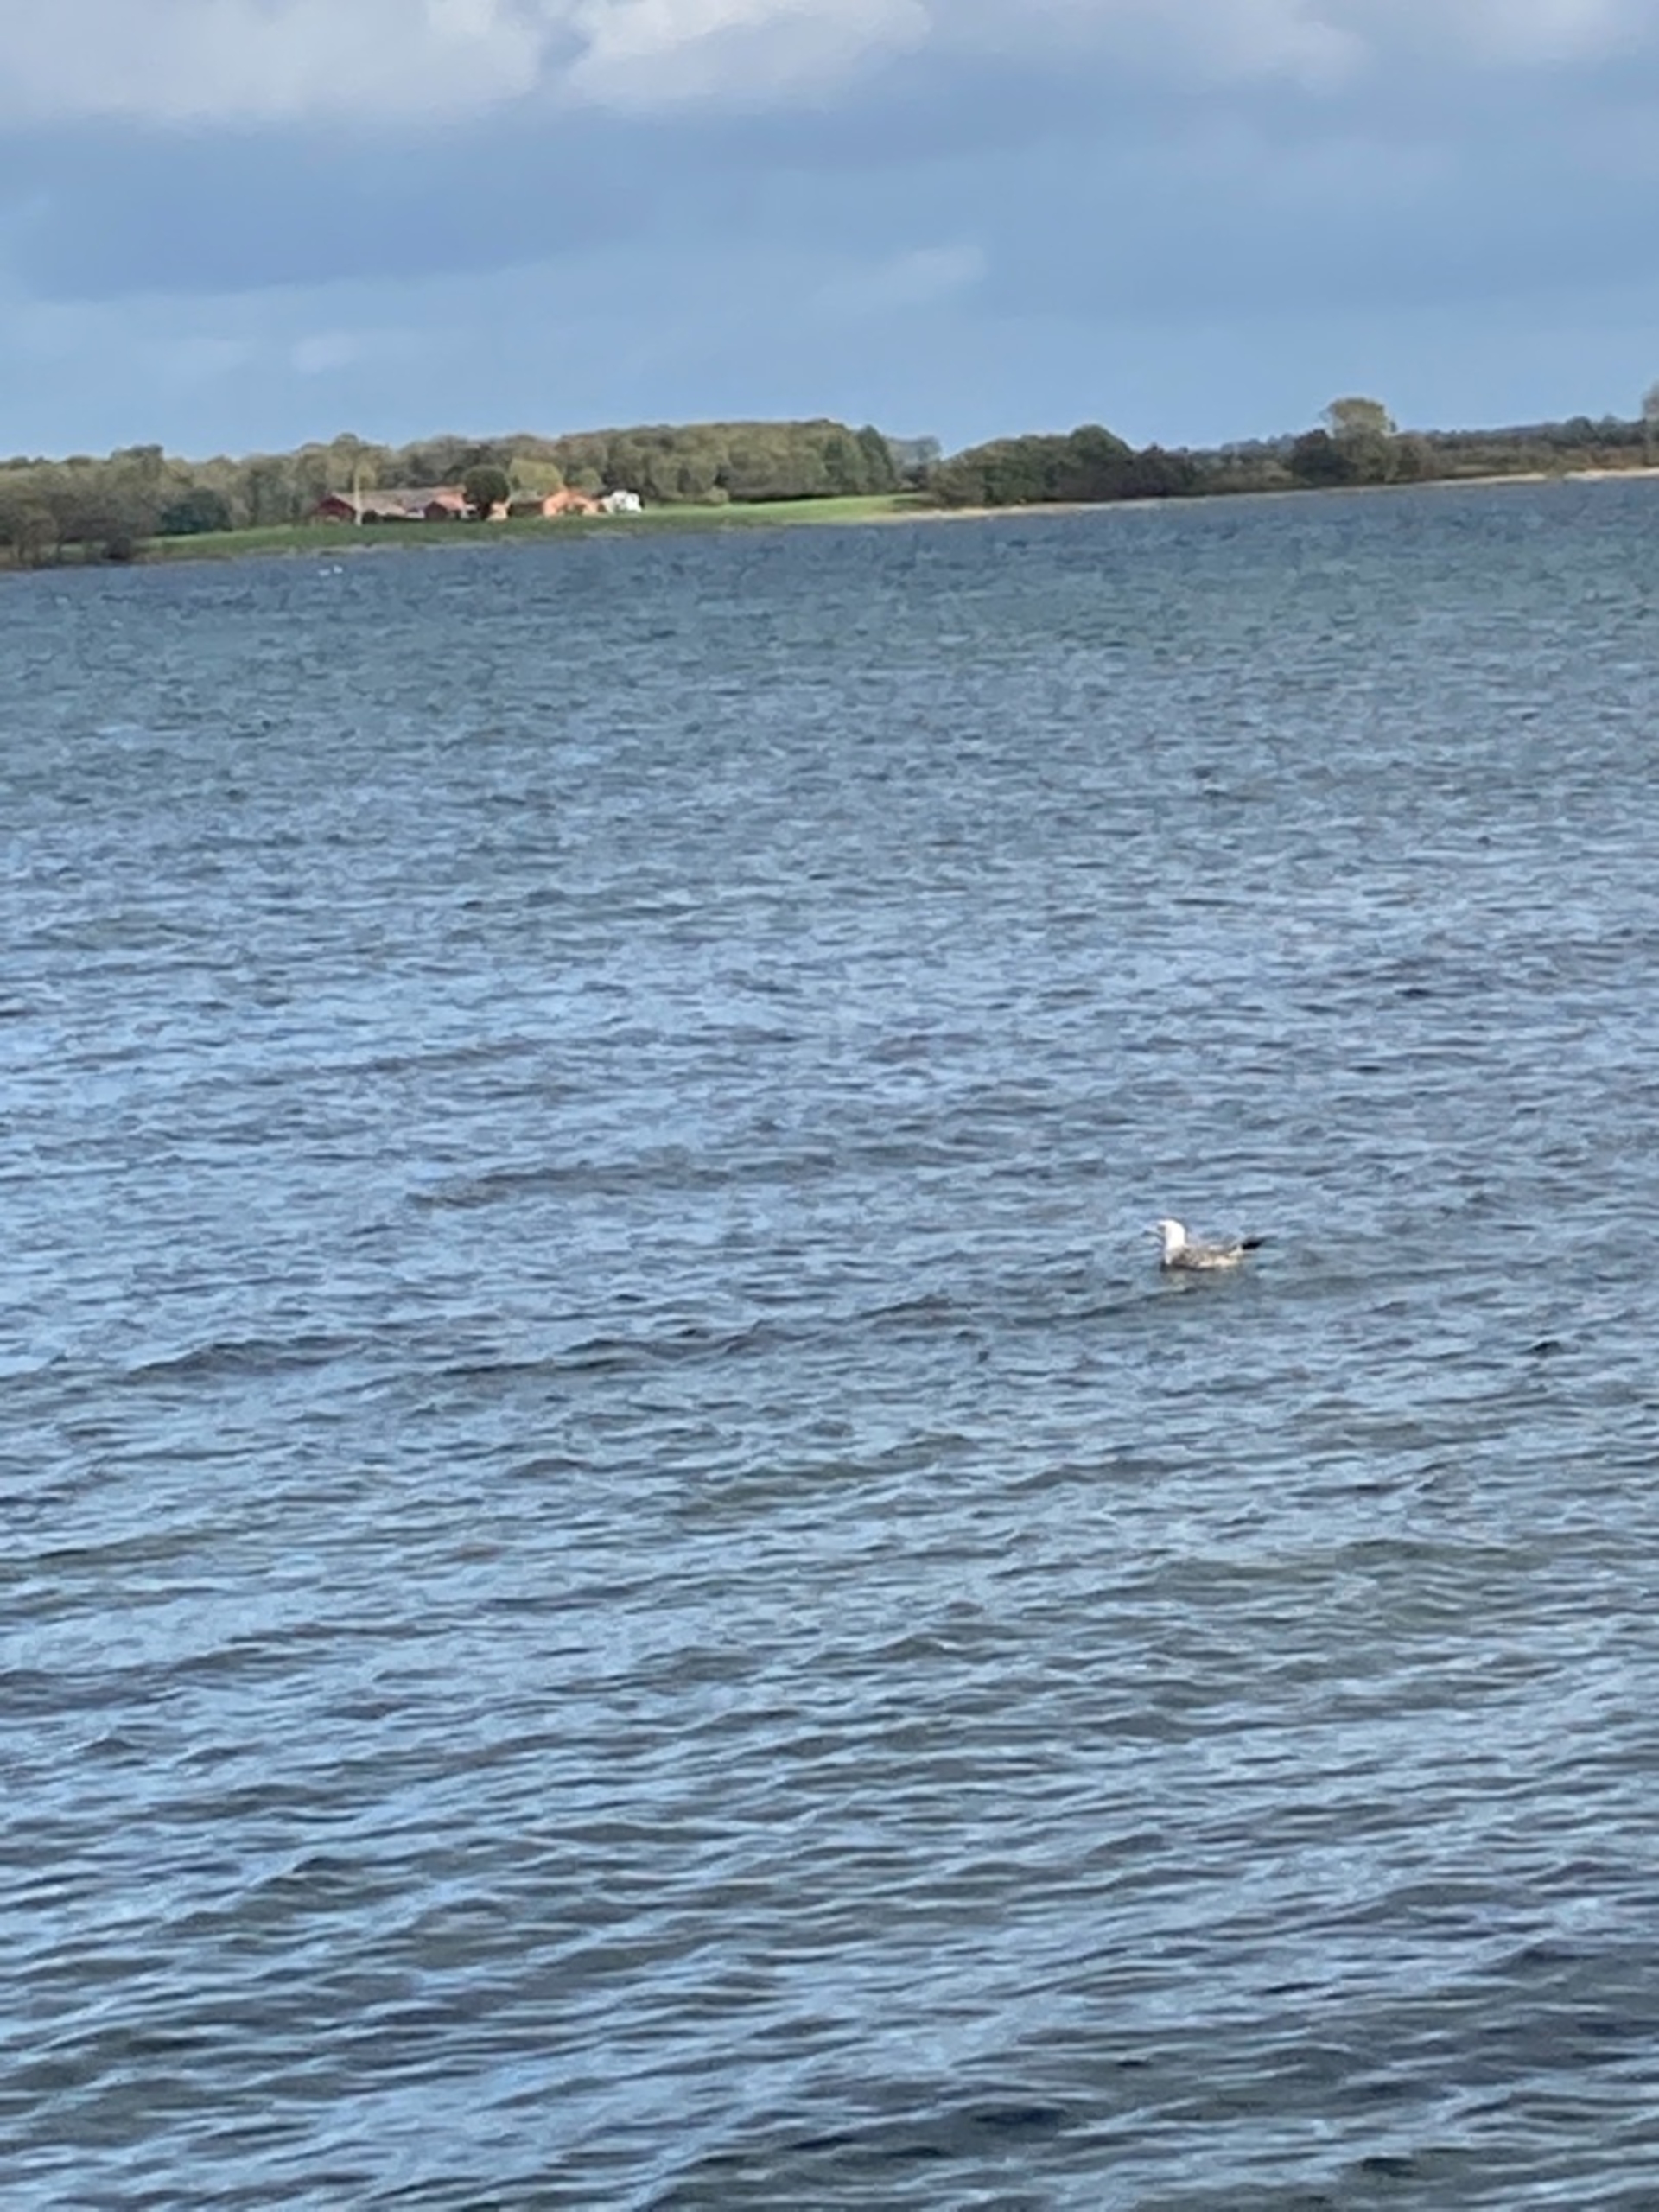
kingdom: Animalia
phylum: Chordata
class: Aves
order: Charadriiformes
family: Laridae
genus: Larus
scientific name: Larus argentatus
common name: Sølvmåge
